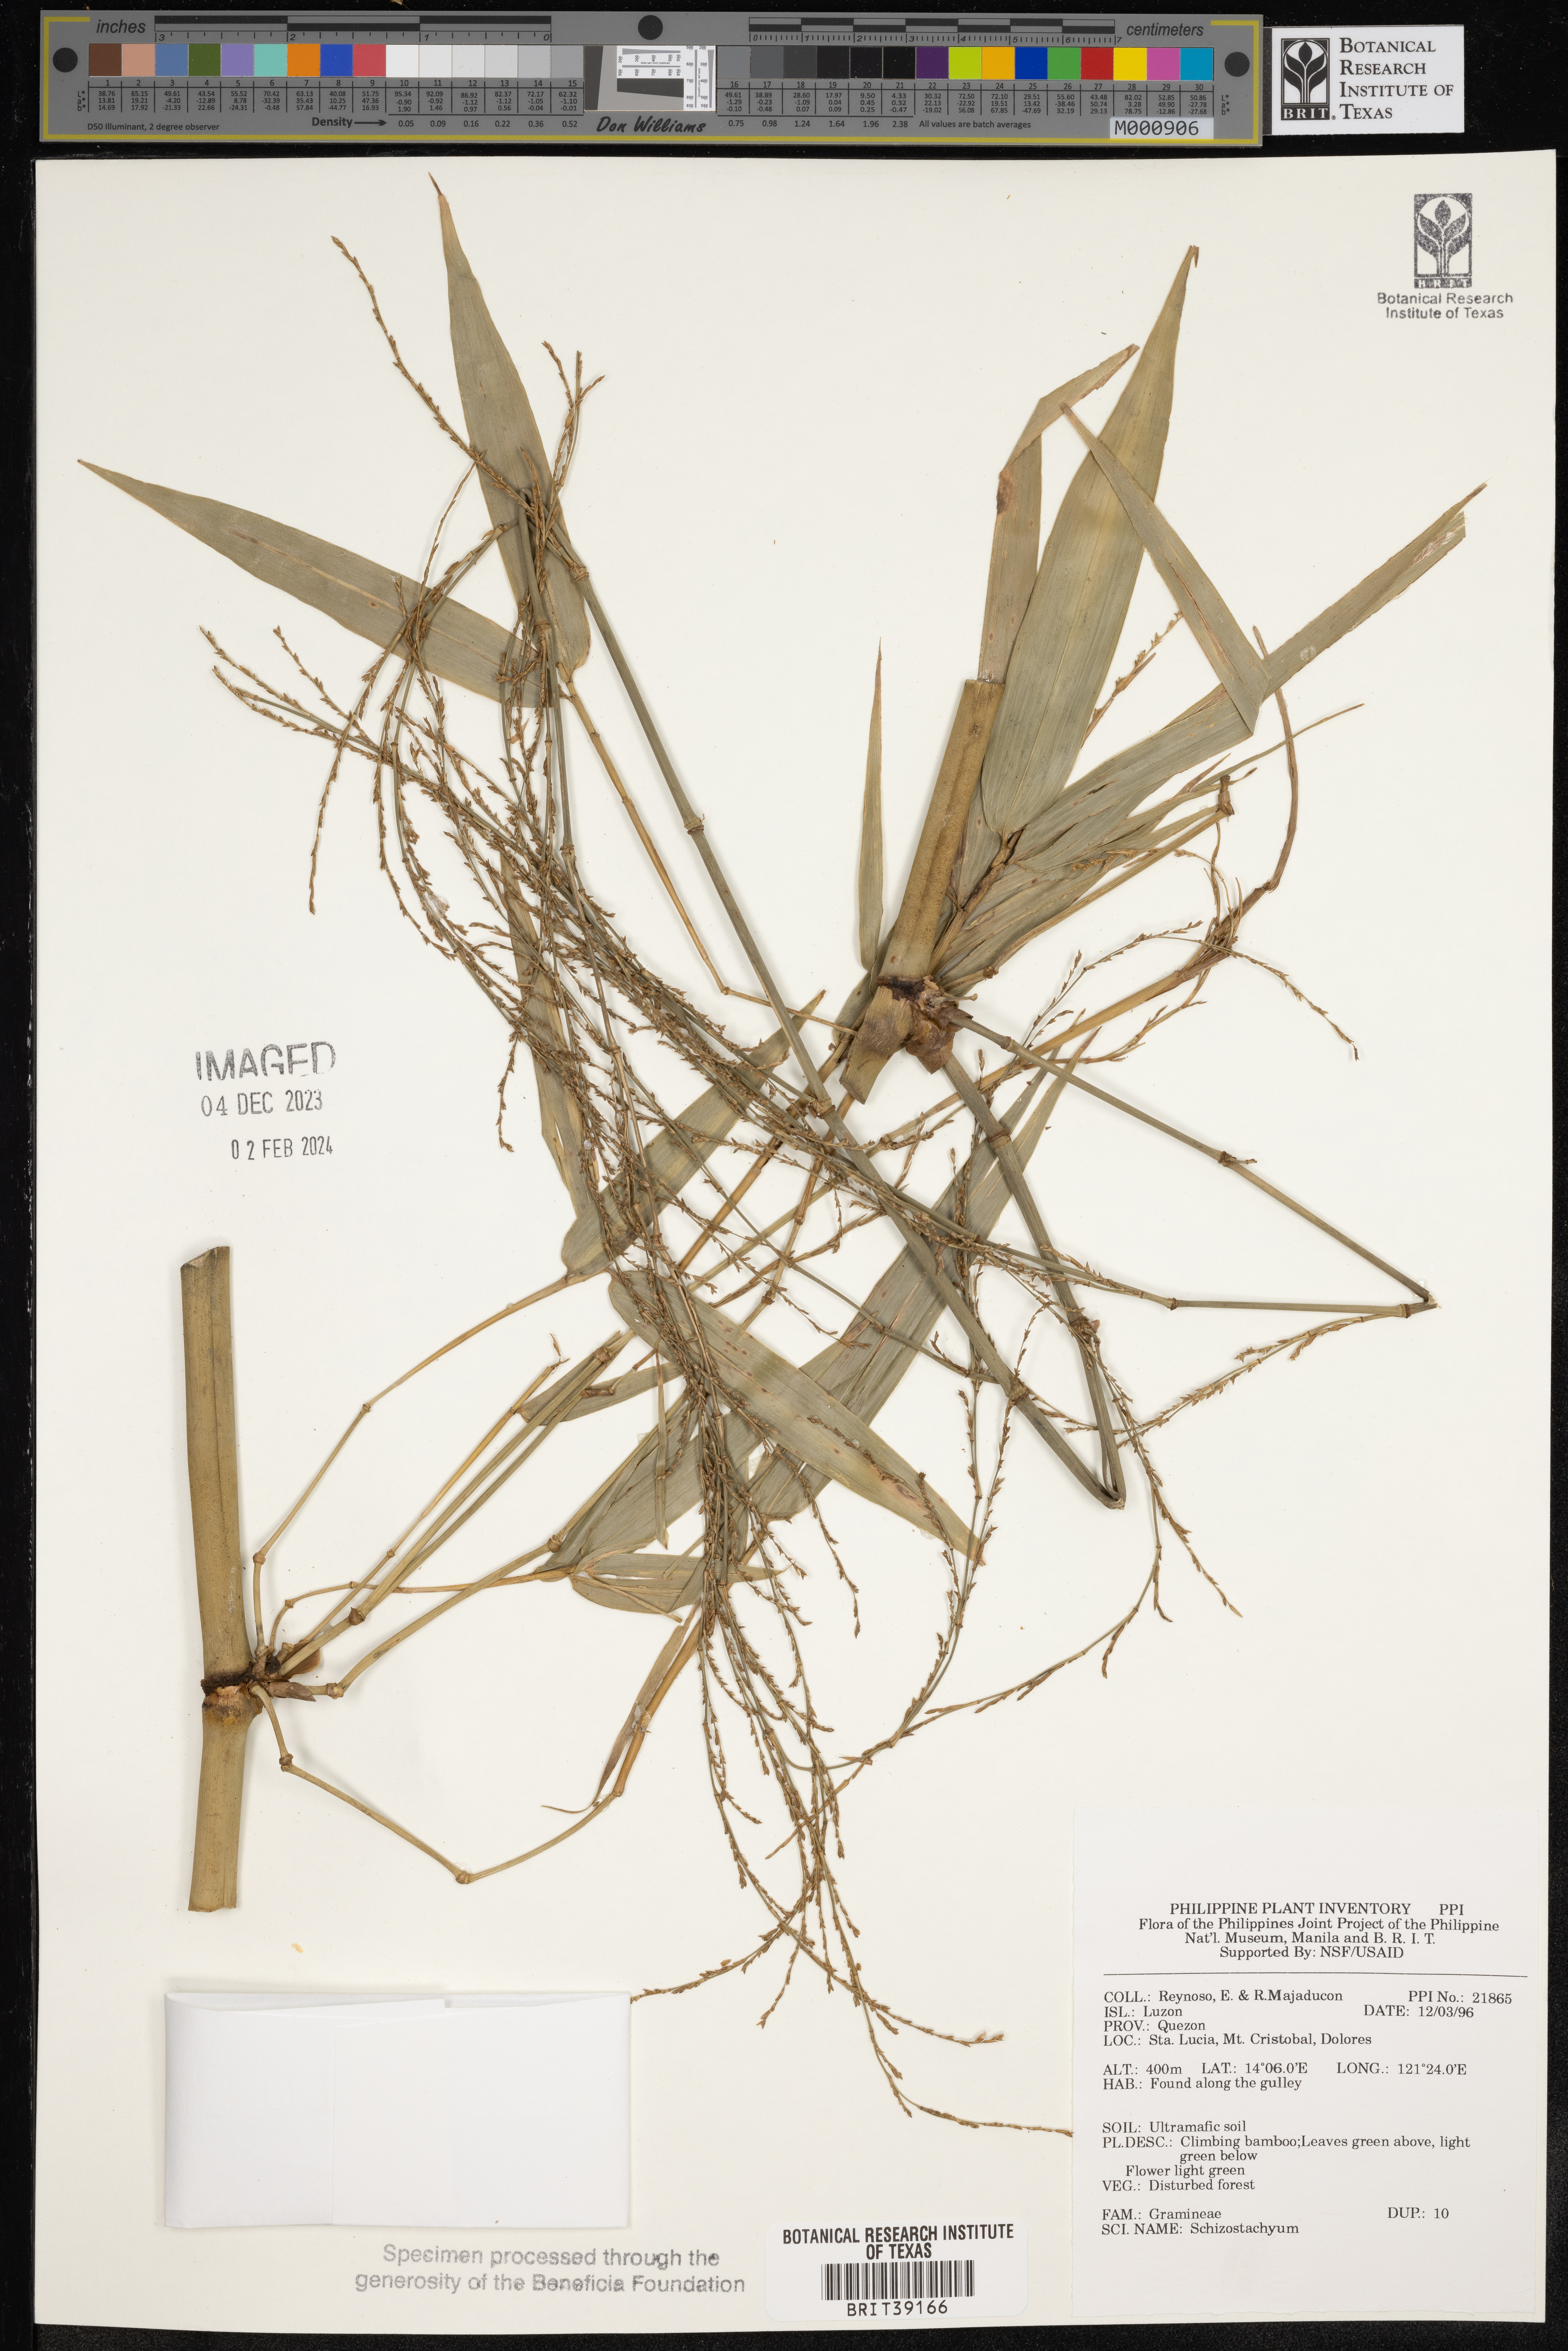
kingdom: Plantae
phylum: Tracheophyta
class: Liliopsida
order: Poales
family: Poaceae
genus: Schizostachyum
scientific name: Schizostachyum
